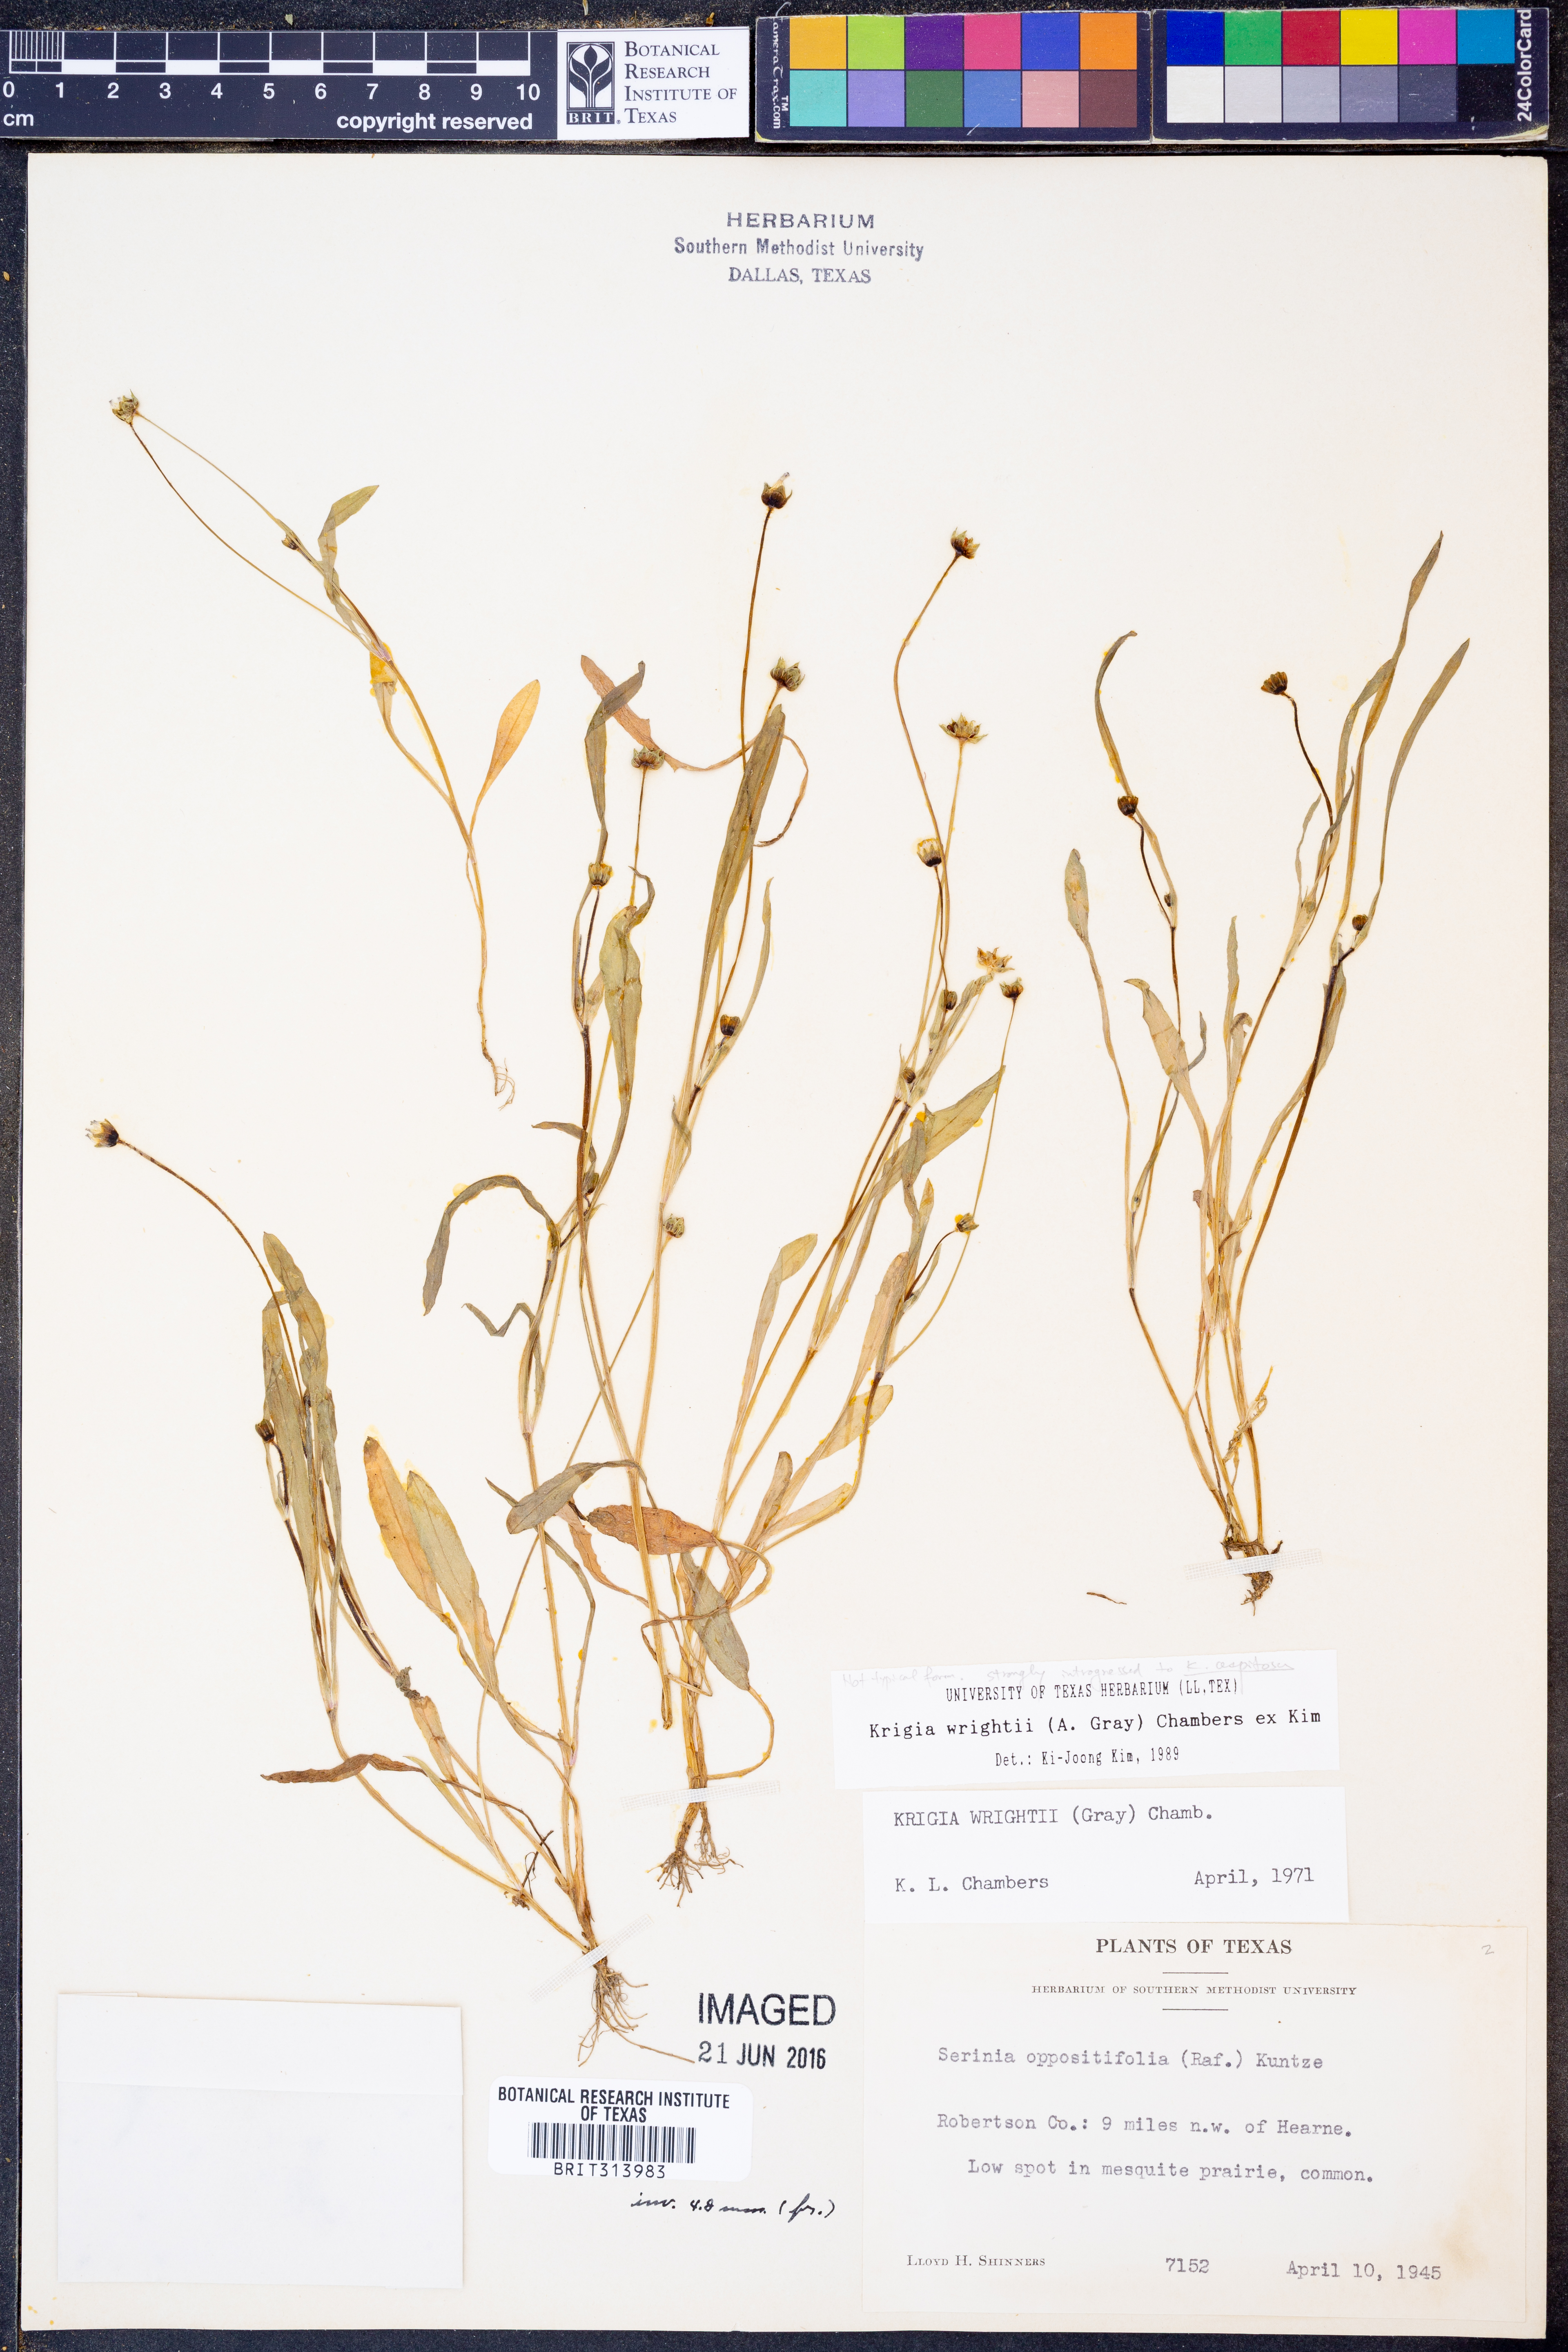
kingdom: Plantae
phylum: Tracheophyta
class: Magnoliopsida
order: Asterales
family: Asteraceae
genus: Krigia
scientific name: Krigia wrightii
